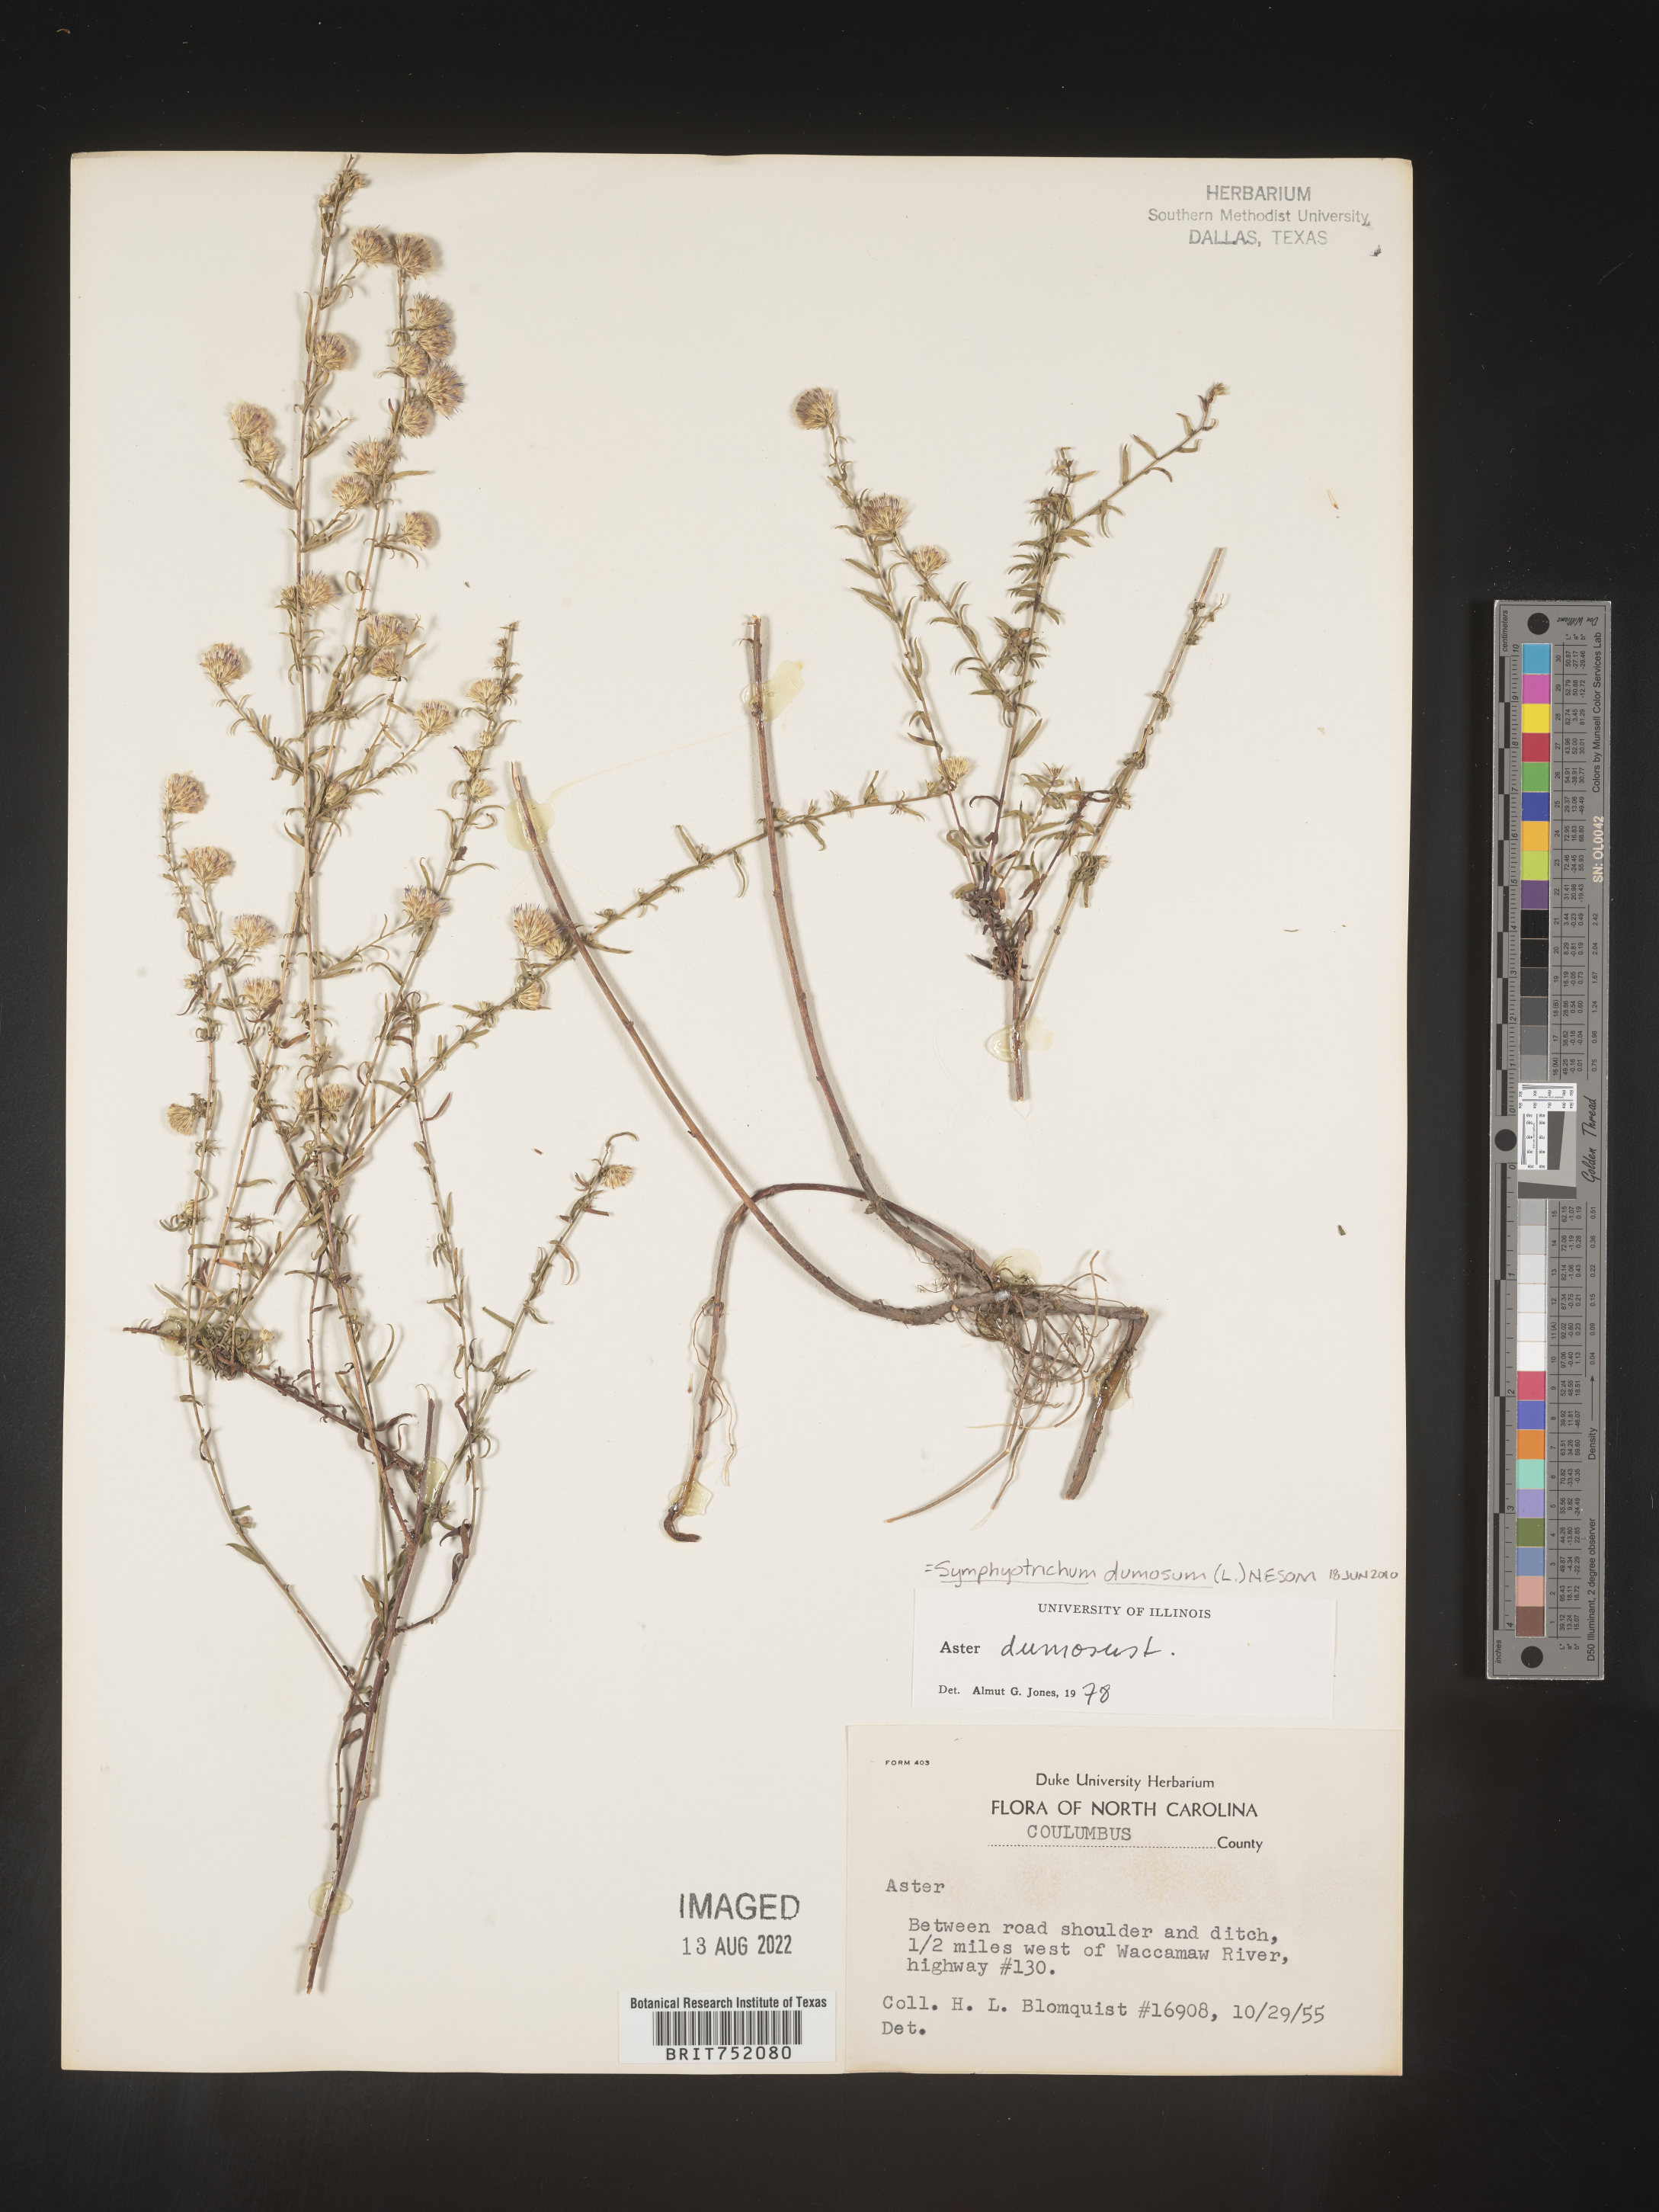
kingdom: Plantae
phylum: Tracheophyta
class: Magnoliopsida
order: Asterales
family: Asteraceae
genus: Symphyotrichum
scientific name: Symphyotrichum dumosum
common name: Bushy aster
